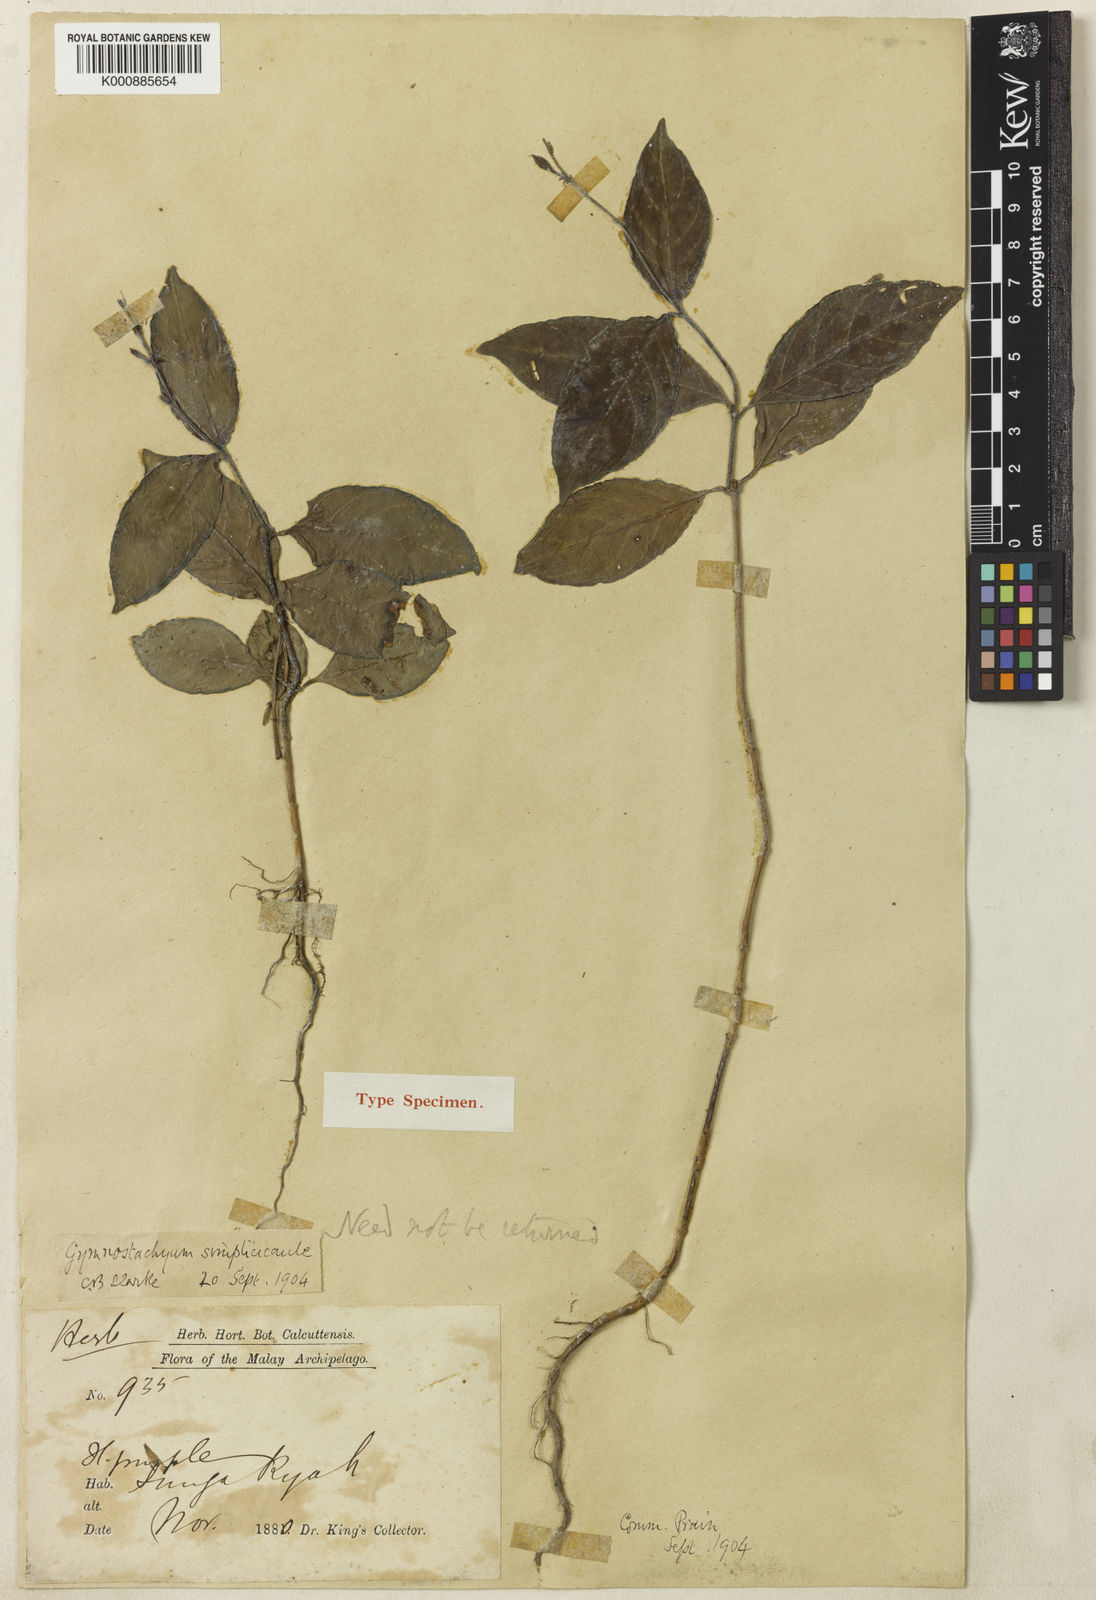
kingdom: Plantae
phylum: Tracheophyta
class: Magnoliopsida
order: Lamiales
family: Acanthaceae
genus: Gymnostachyum
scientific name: Gymnostachyum simplicicaule
